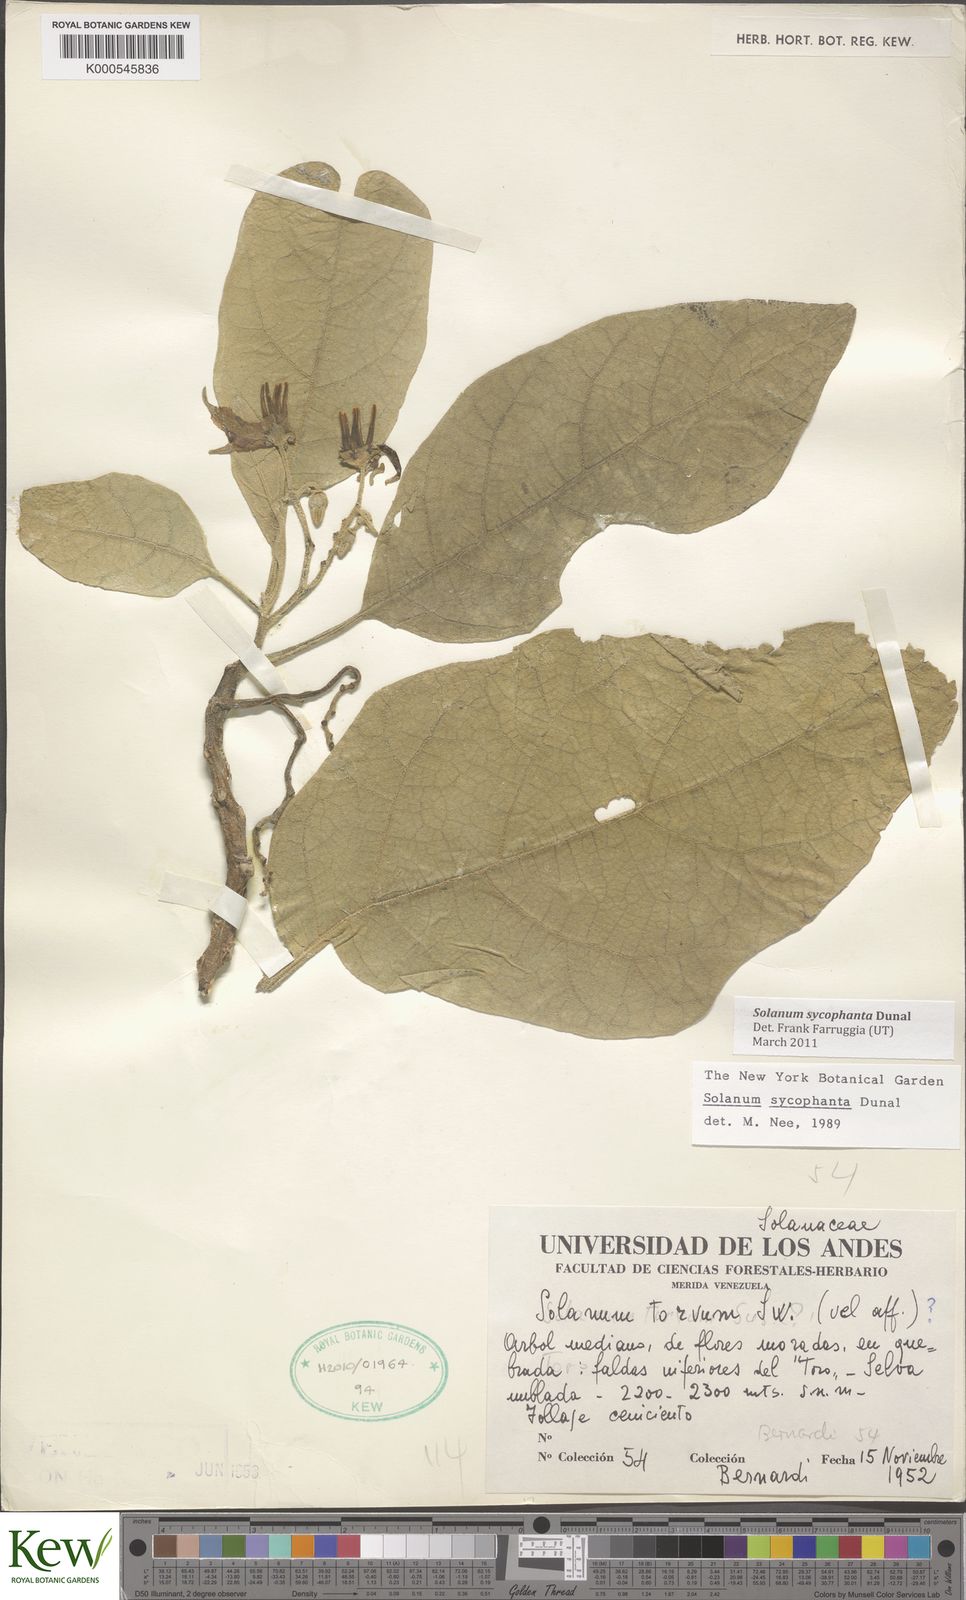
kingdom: Plantae
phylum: Tracheophyta
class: Magnoliopsida
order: Solanales
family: Solanaceae
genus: Solanum
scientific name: Solanum sycophanta
